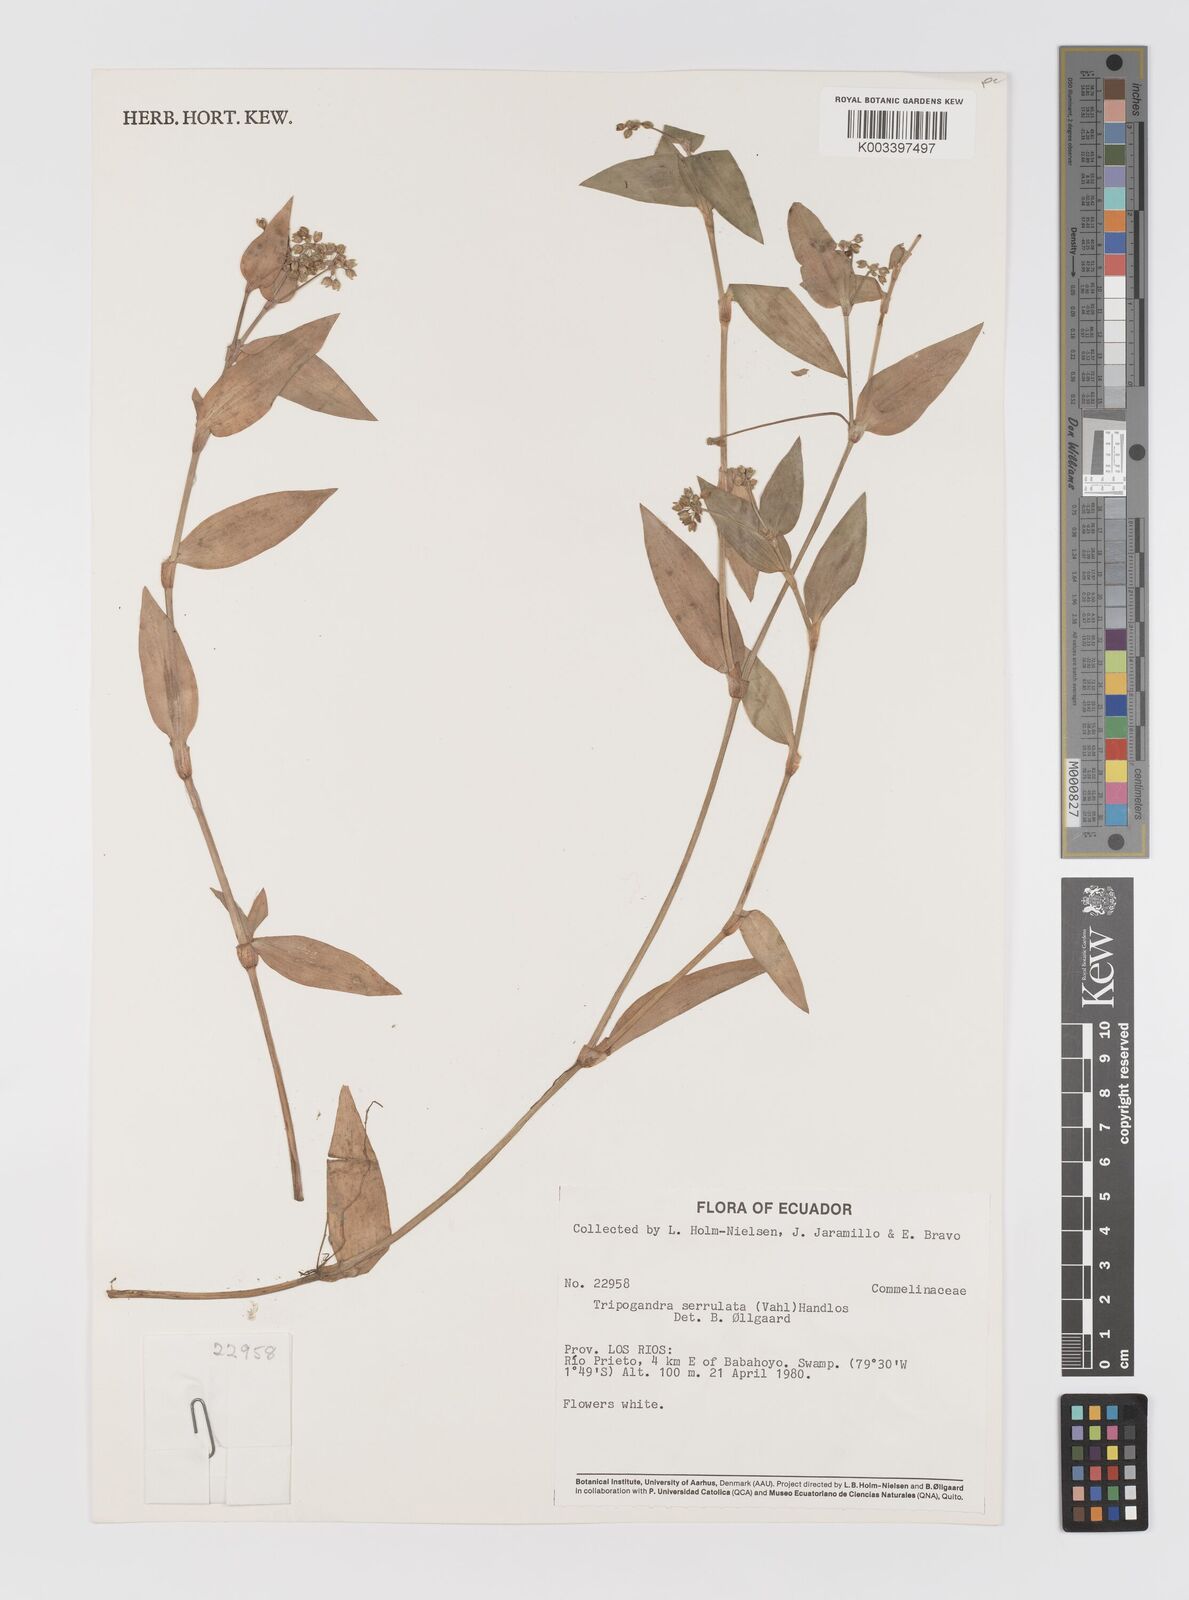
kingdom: Plantae
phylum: Tracheophyta
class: Liliopsida
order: Commelinales
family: Commelinaceae
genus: Callisia
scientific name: Callisia serrulata
